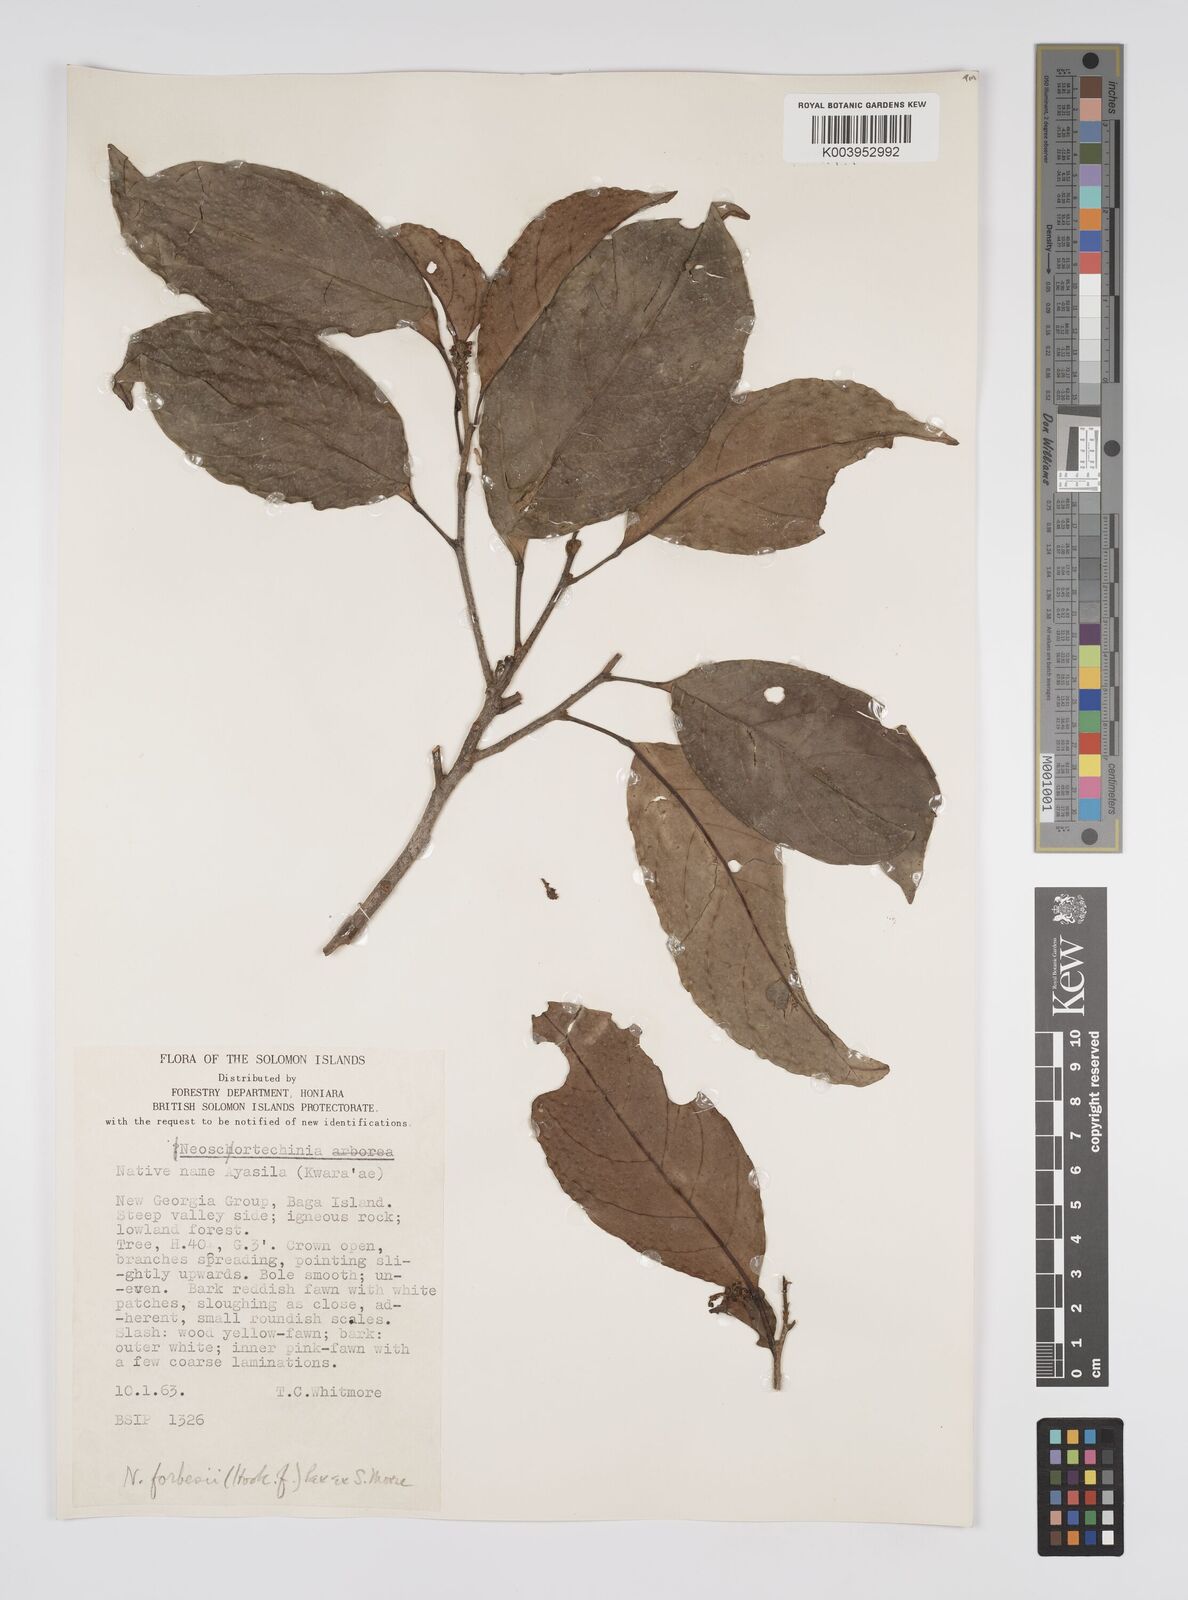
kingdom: Plantae
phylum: Tracheophyta
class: Magnoliopsida
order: Malpighiales
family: Euphorbiaceae
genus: Neoscortechinia
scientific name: Neoscortechinia forbesii
